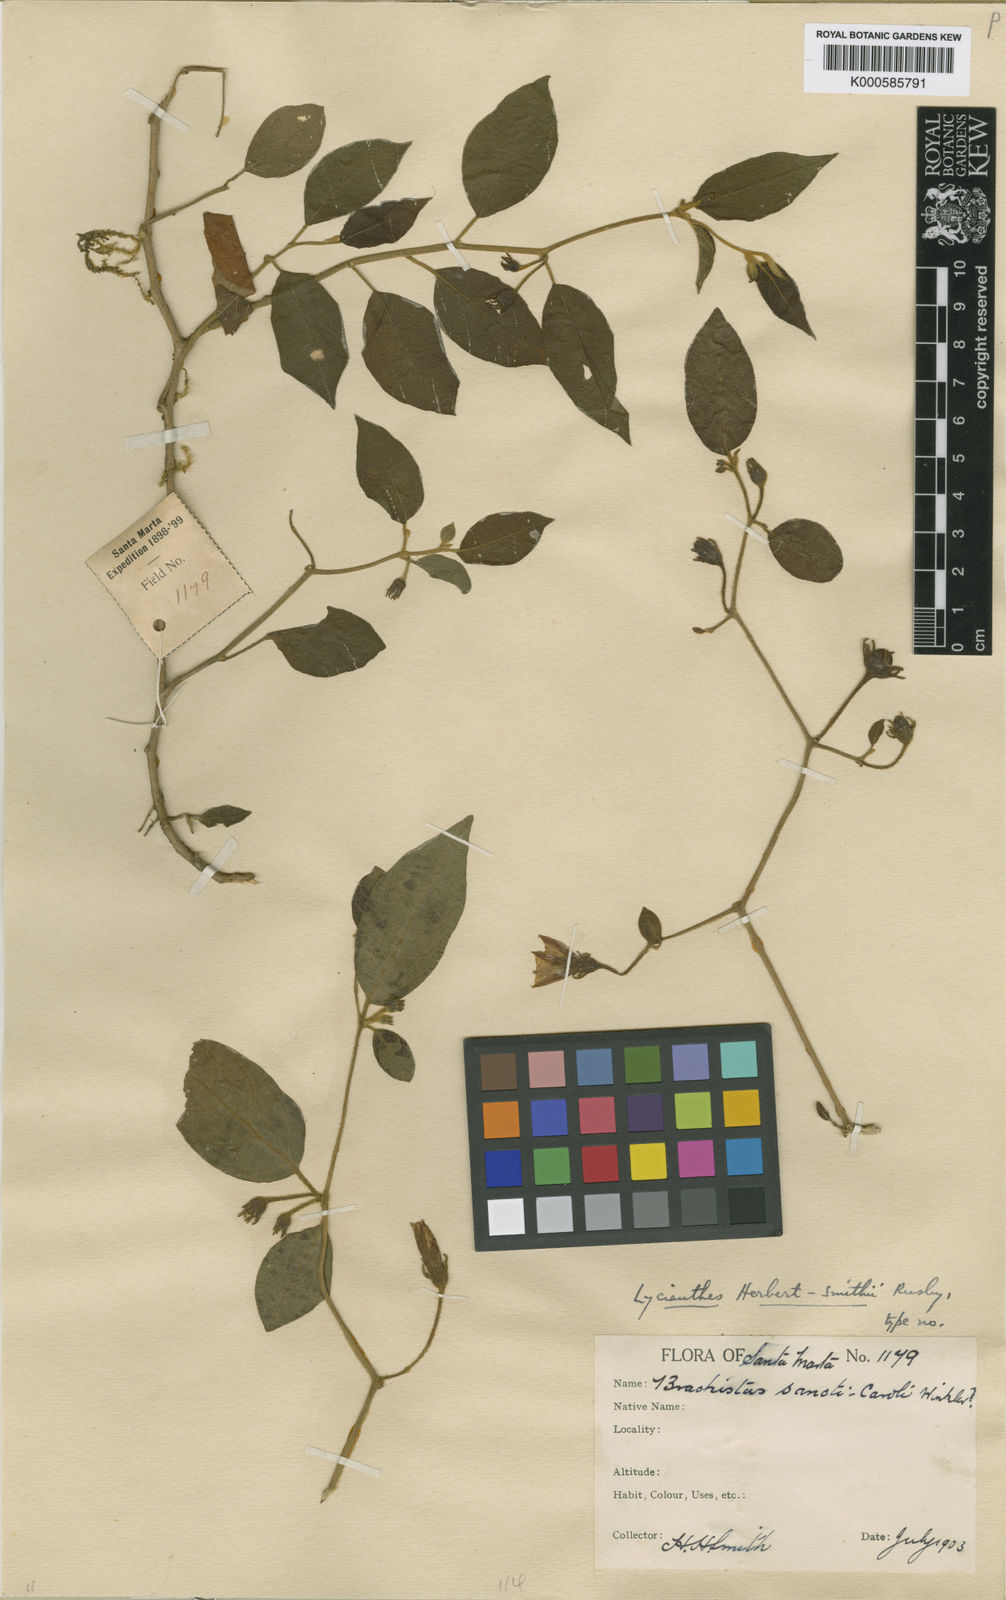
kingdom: Plantae
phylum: Tracheophyta
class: Magnoliopsida
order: Solanales
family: Solanaceae
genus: Lycianthes
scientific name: Lycianthes dendriticothrix
